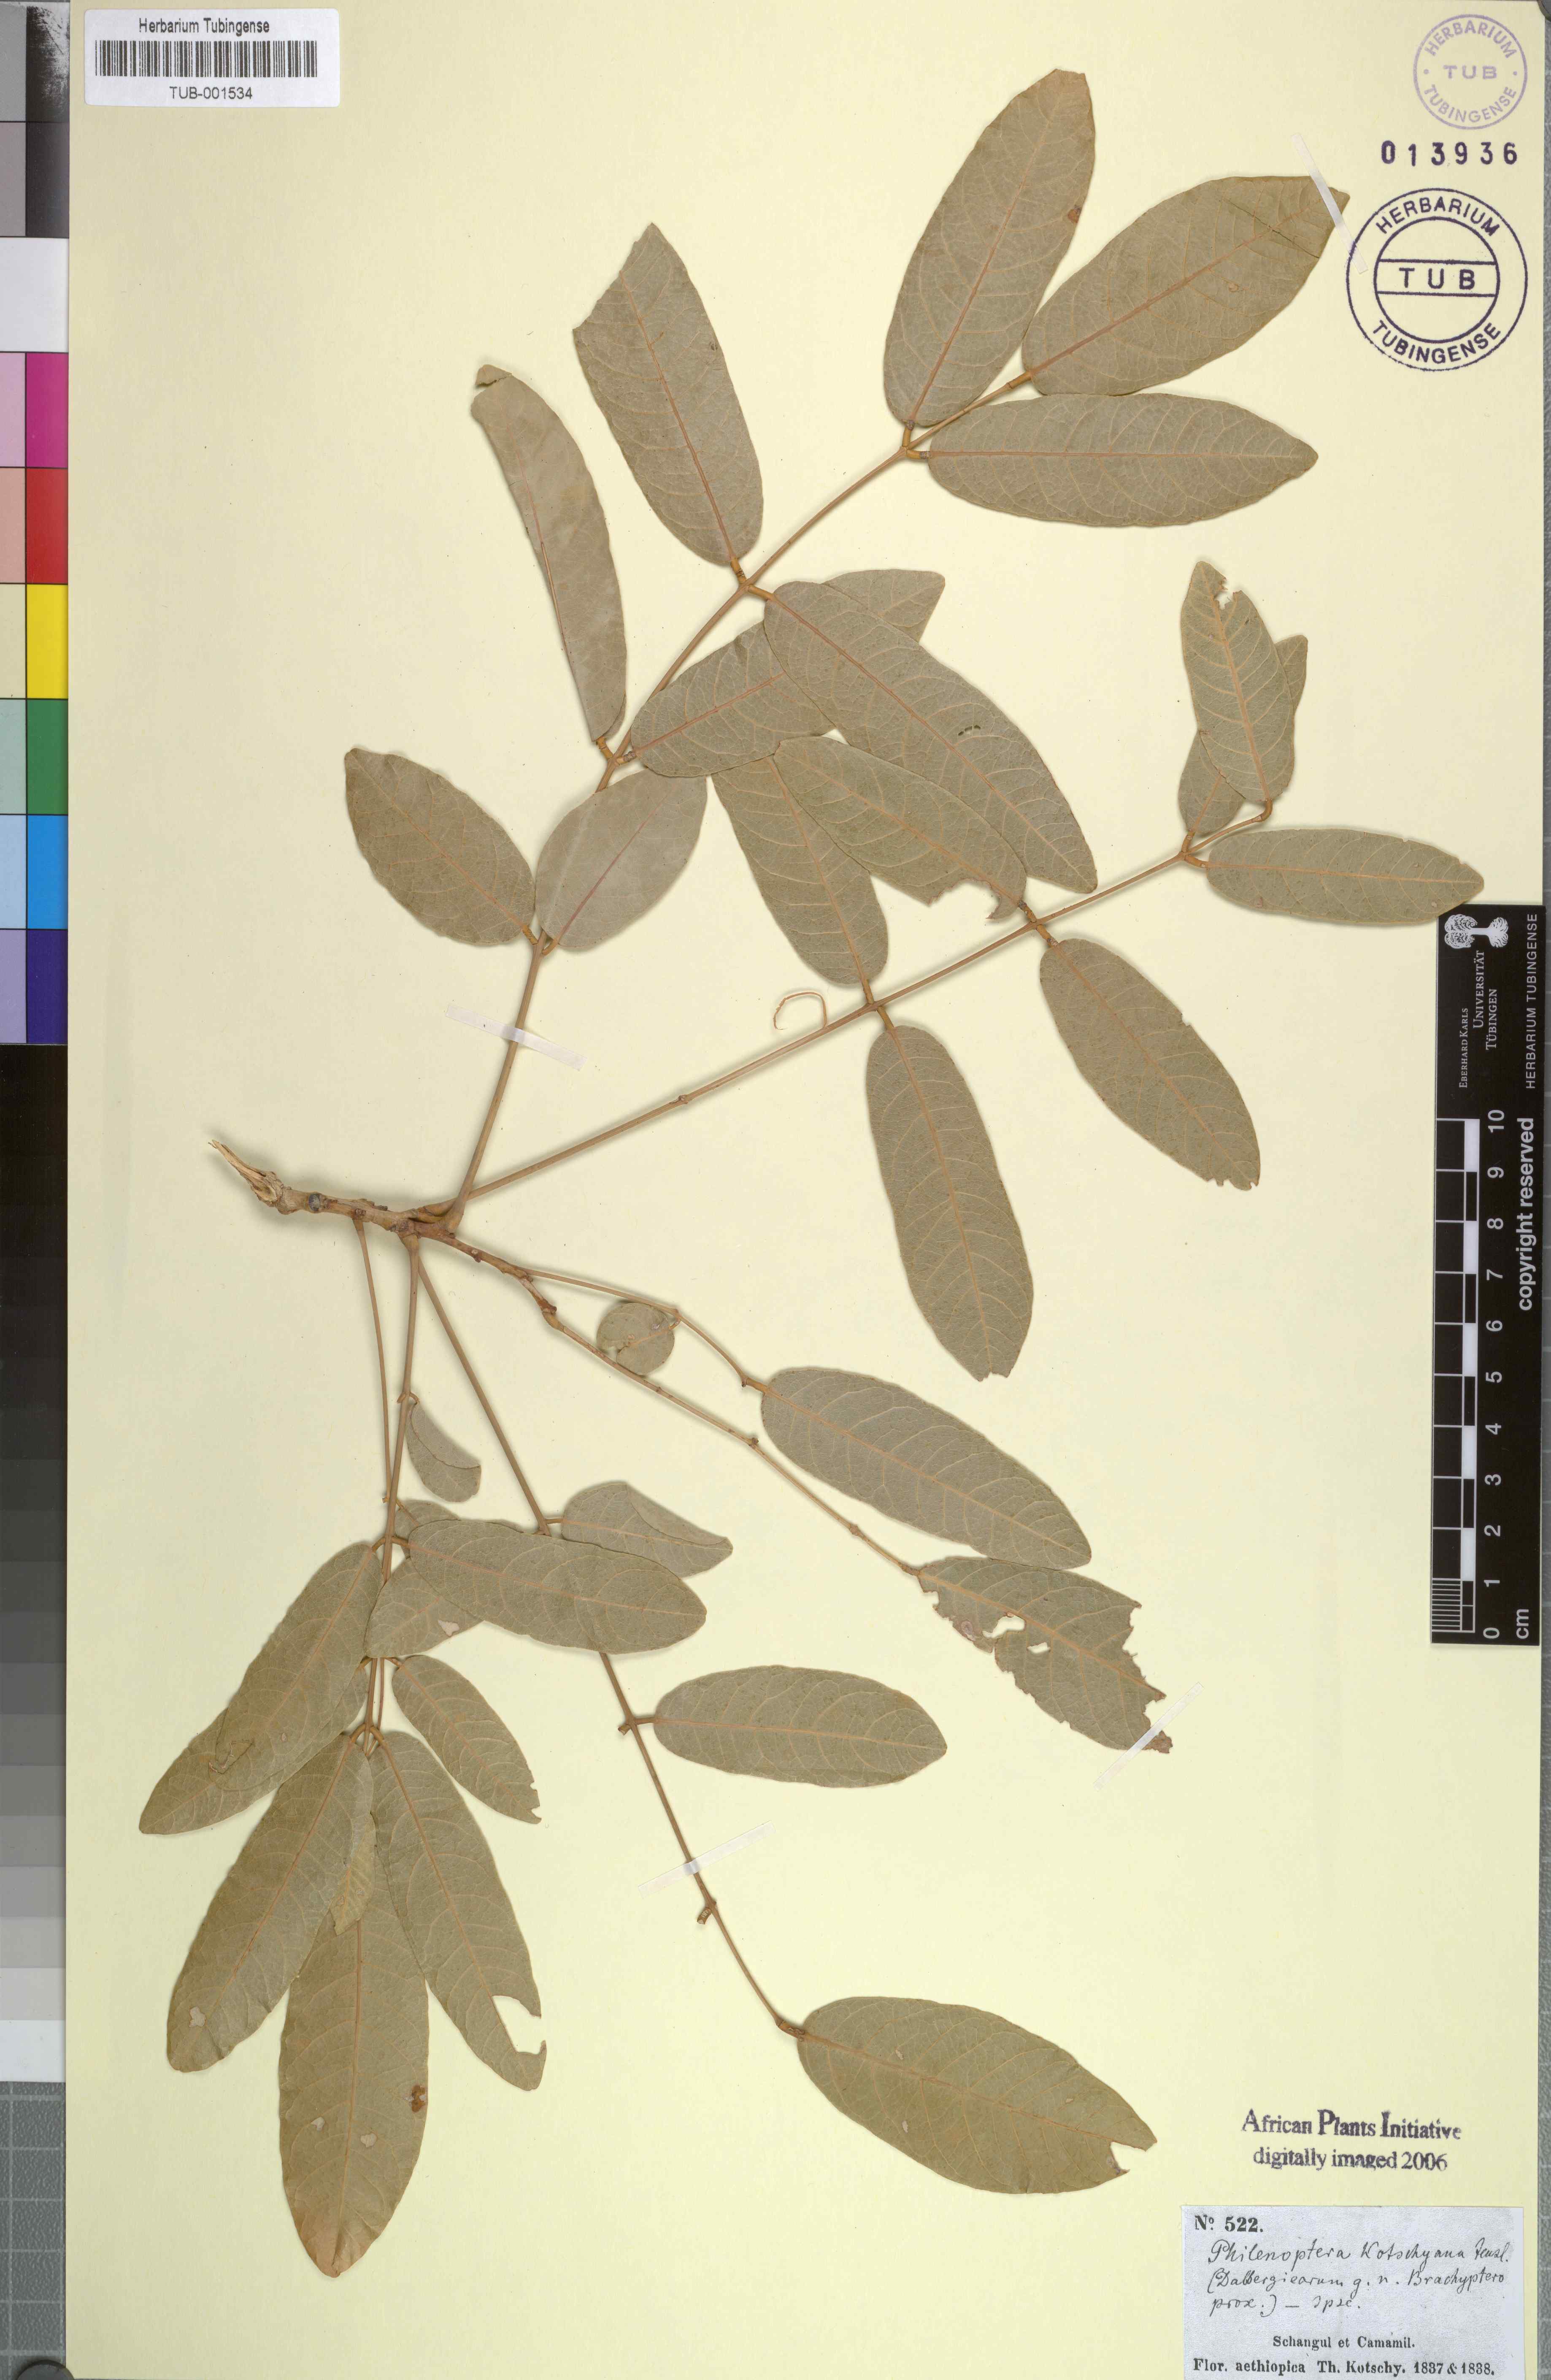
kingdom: Plantae
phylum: Tracheophyta
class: Magnoliopsida
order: Fabales
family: Fabaceae
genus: Philenoptera
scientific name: Philenoptera laxiflora
